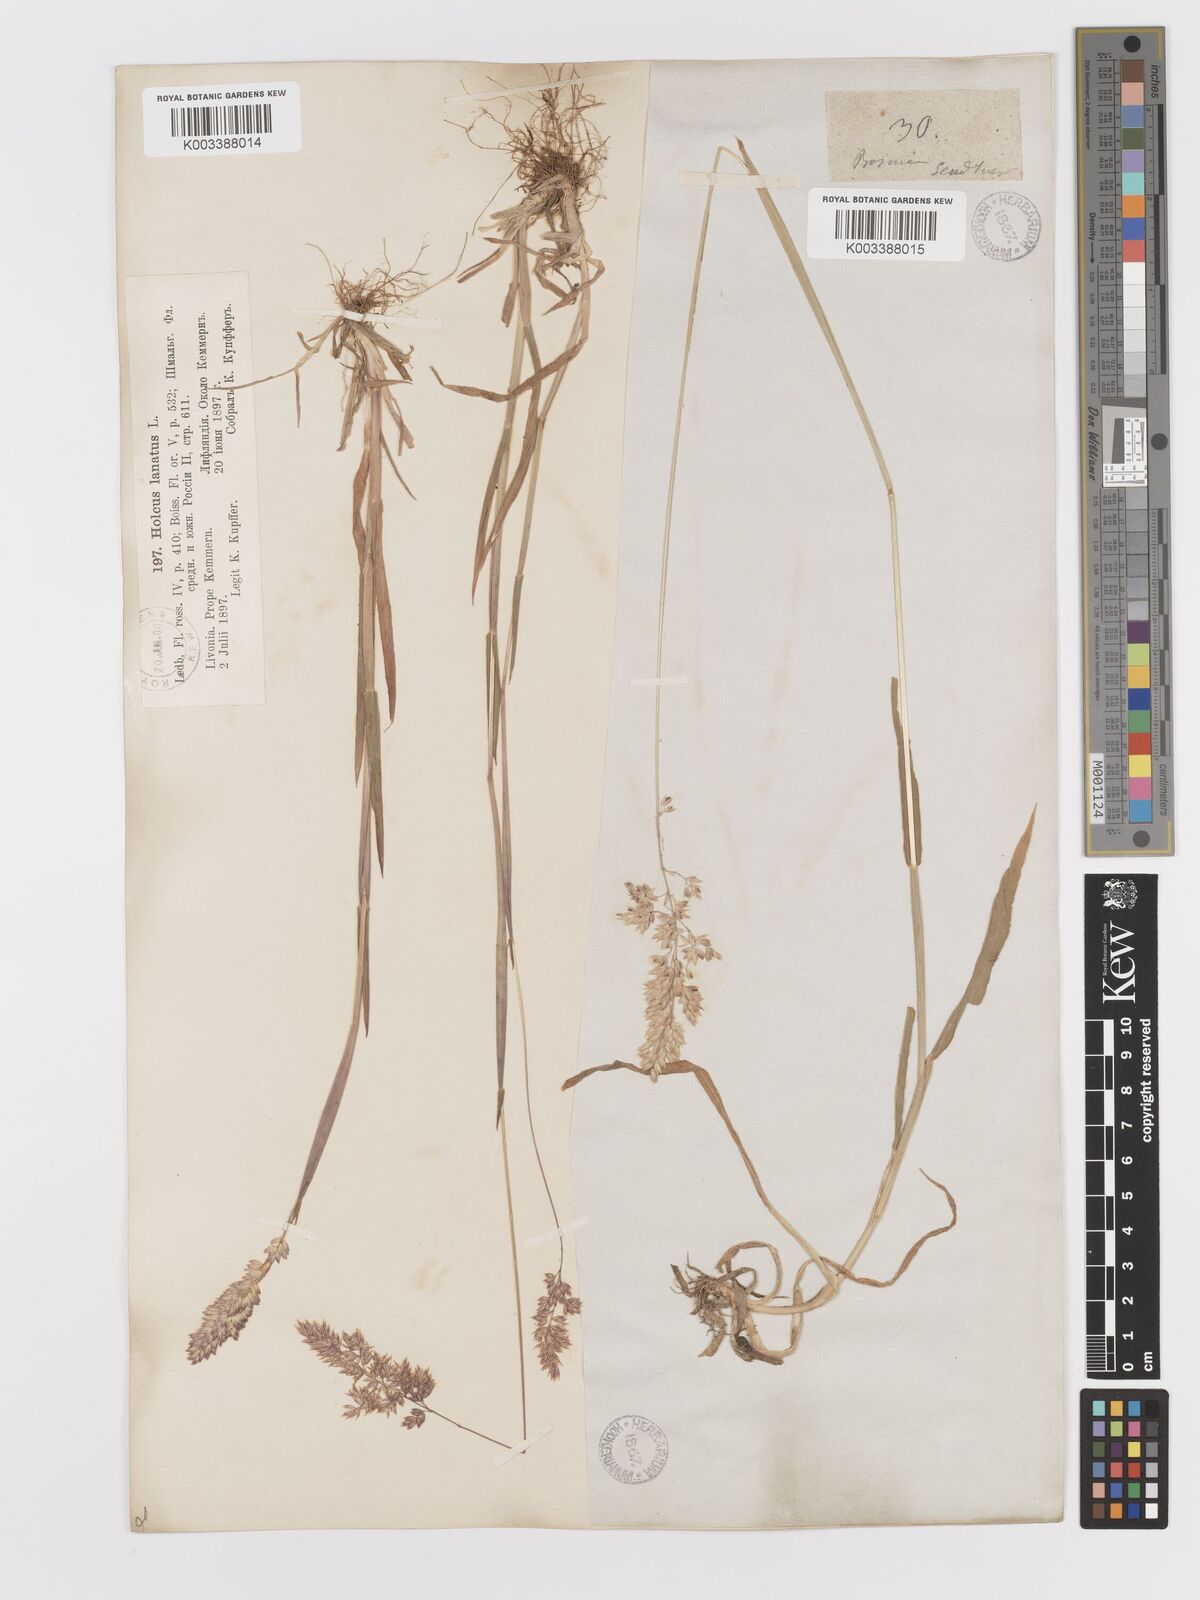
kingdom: Plantae
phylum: Tracheophyta
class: Liliopsida
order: Poales
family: Poaceae
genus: Holcus
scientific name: Holcus lanatus
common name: Yorkshire-fog
